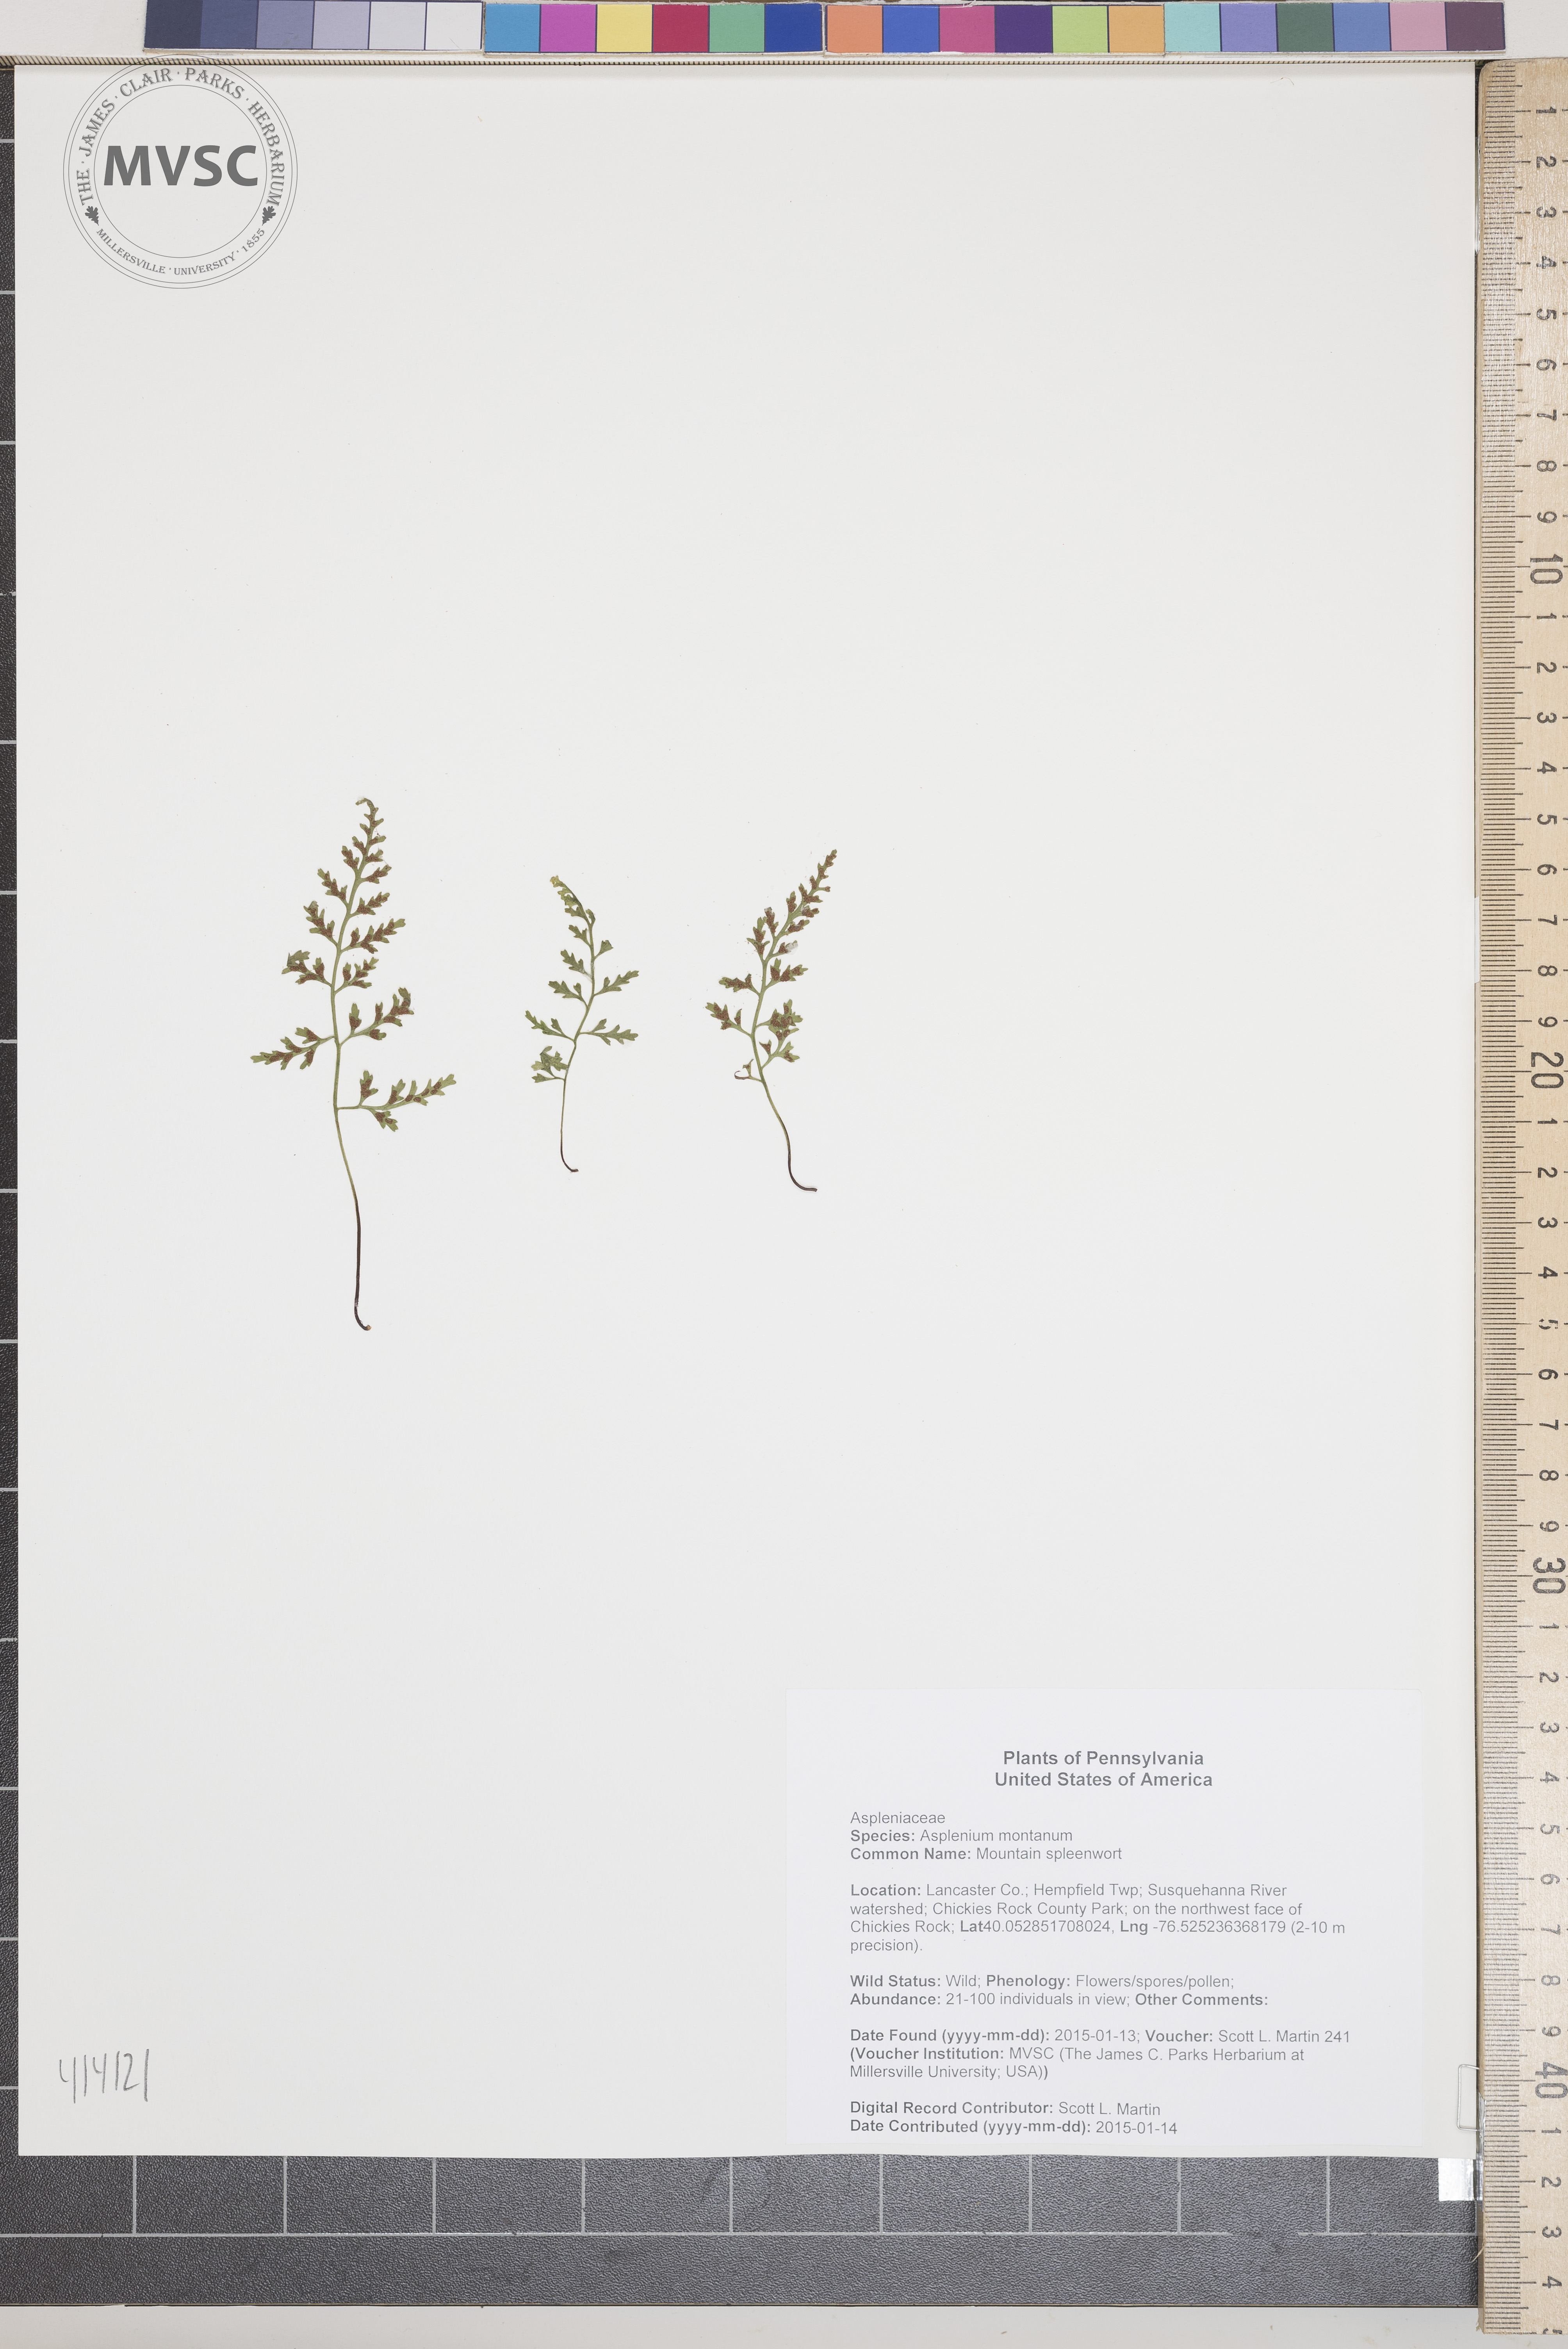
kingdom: Plantae
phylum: Tracheophyta
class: Polypodiopsida
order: Polypodiales
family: Aspleniaceae
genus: Asplenium
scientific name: Asplenium montanum
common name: Mountain spleenwort
